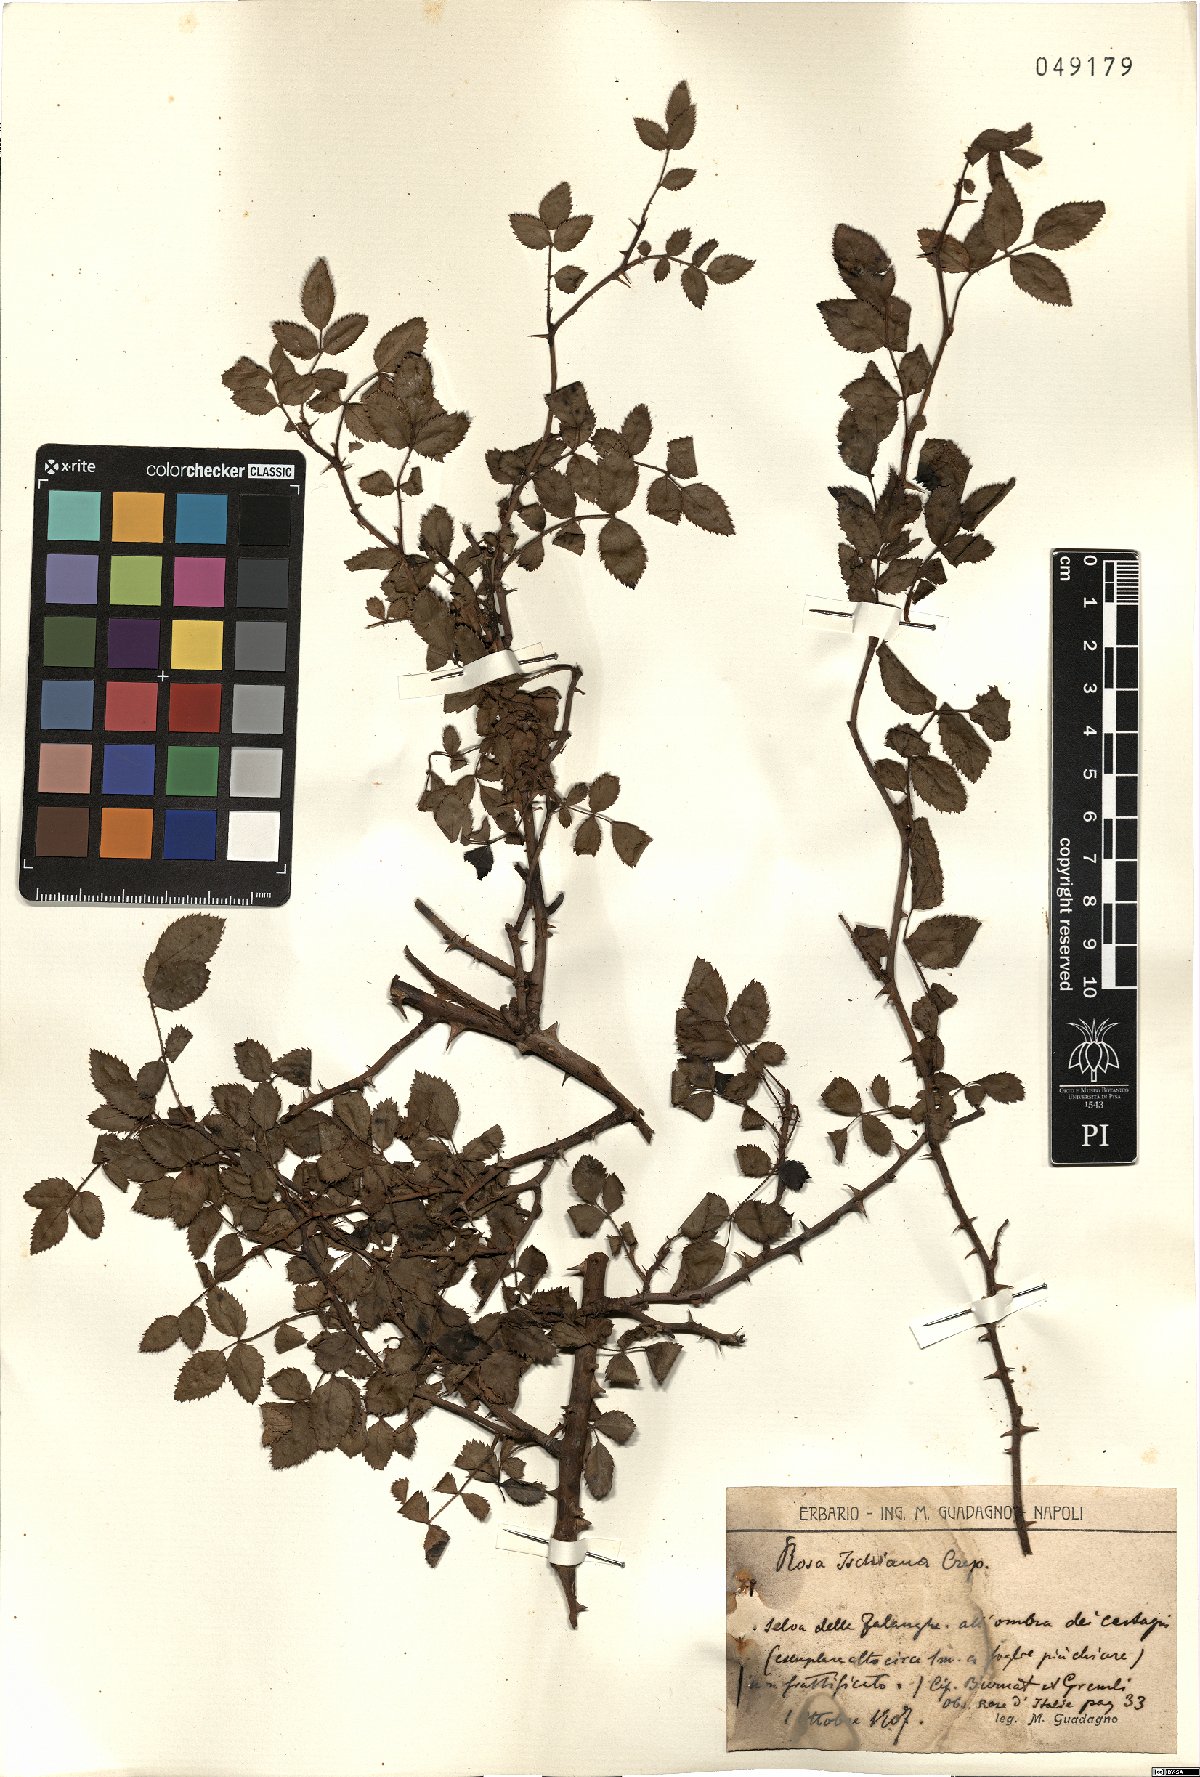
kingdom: Plantae
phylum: Tracheophyta
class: Magnoliopsida
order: Rosales
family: Rosaceae
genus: Rosa
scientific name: Rosa ischiana
